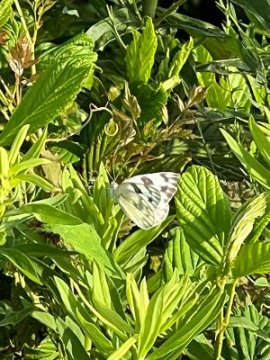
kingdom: Animalia
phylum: Arthropoda
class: Insecta
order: Lepidoptera
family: Pieridae
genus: Pontia
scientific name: Pontia protodice
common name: Checkered White
